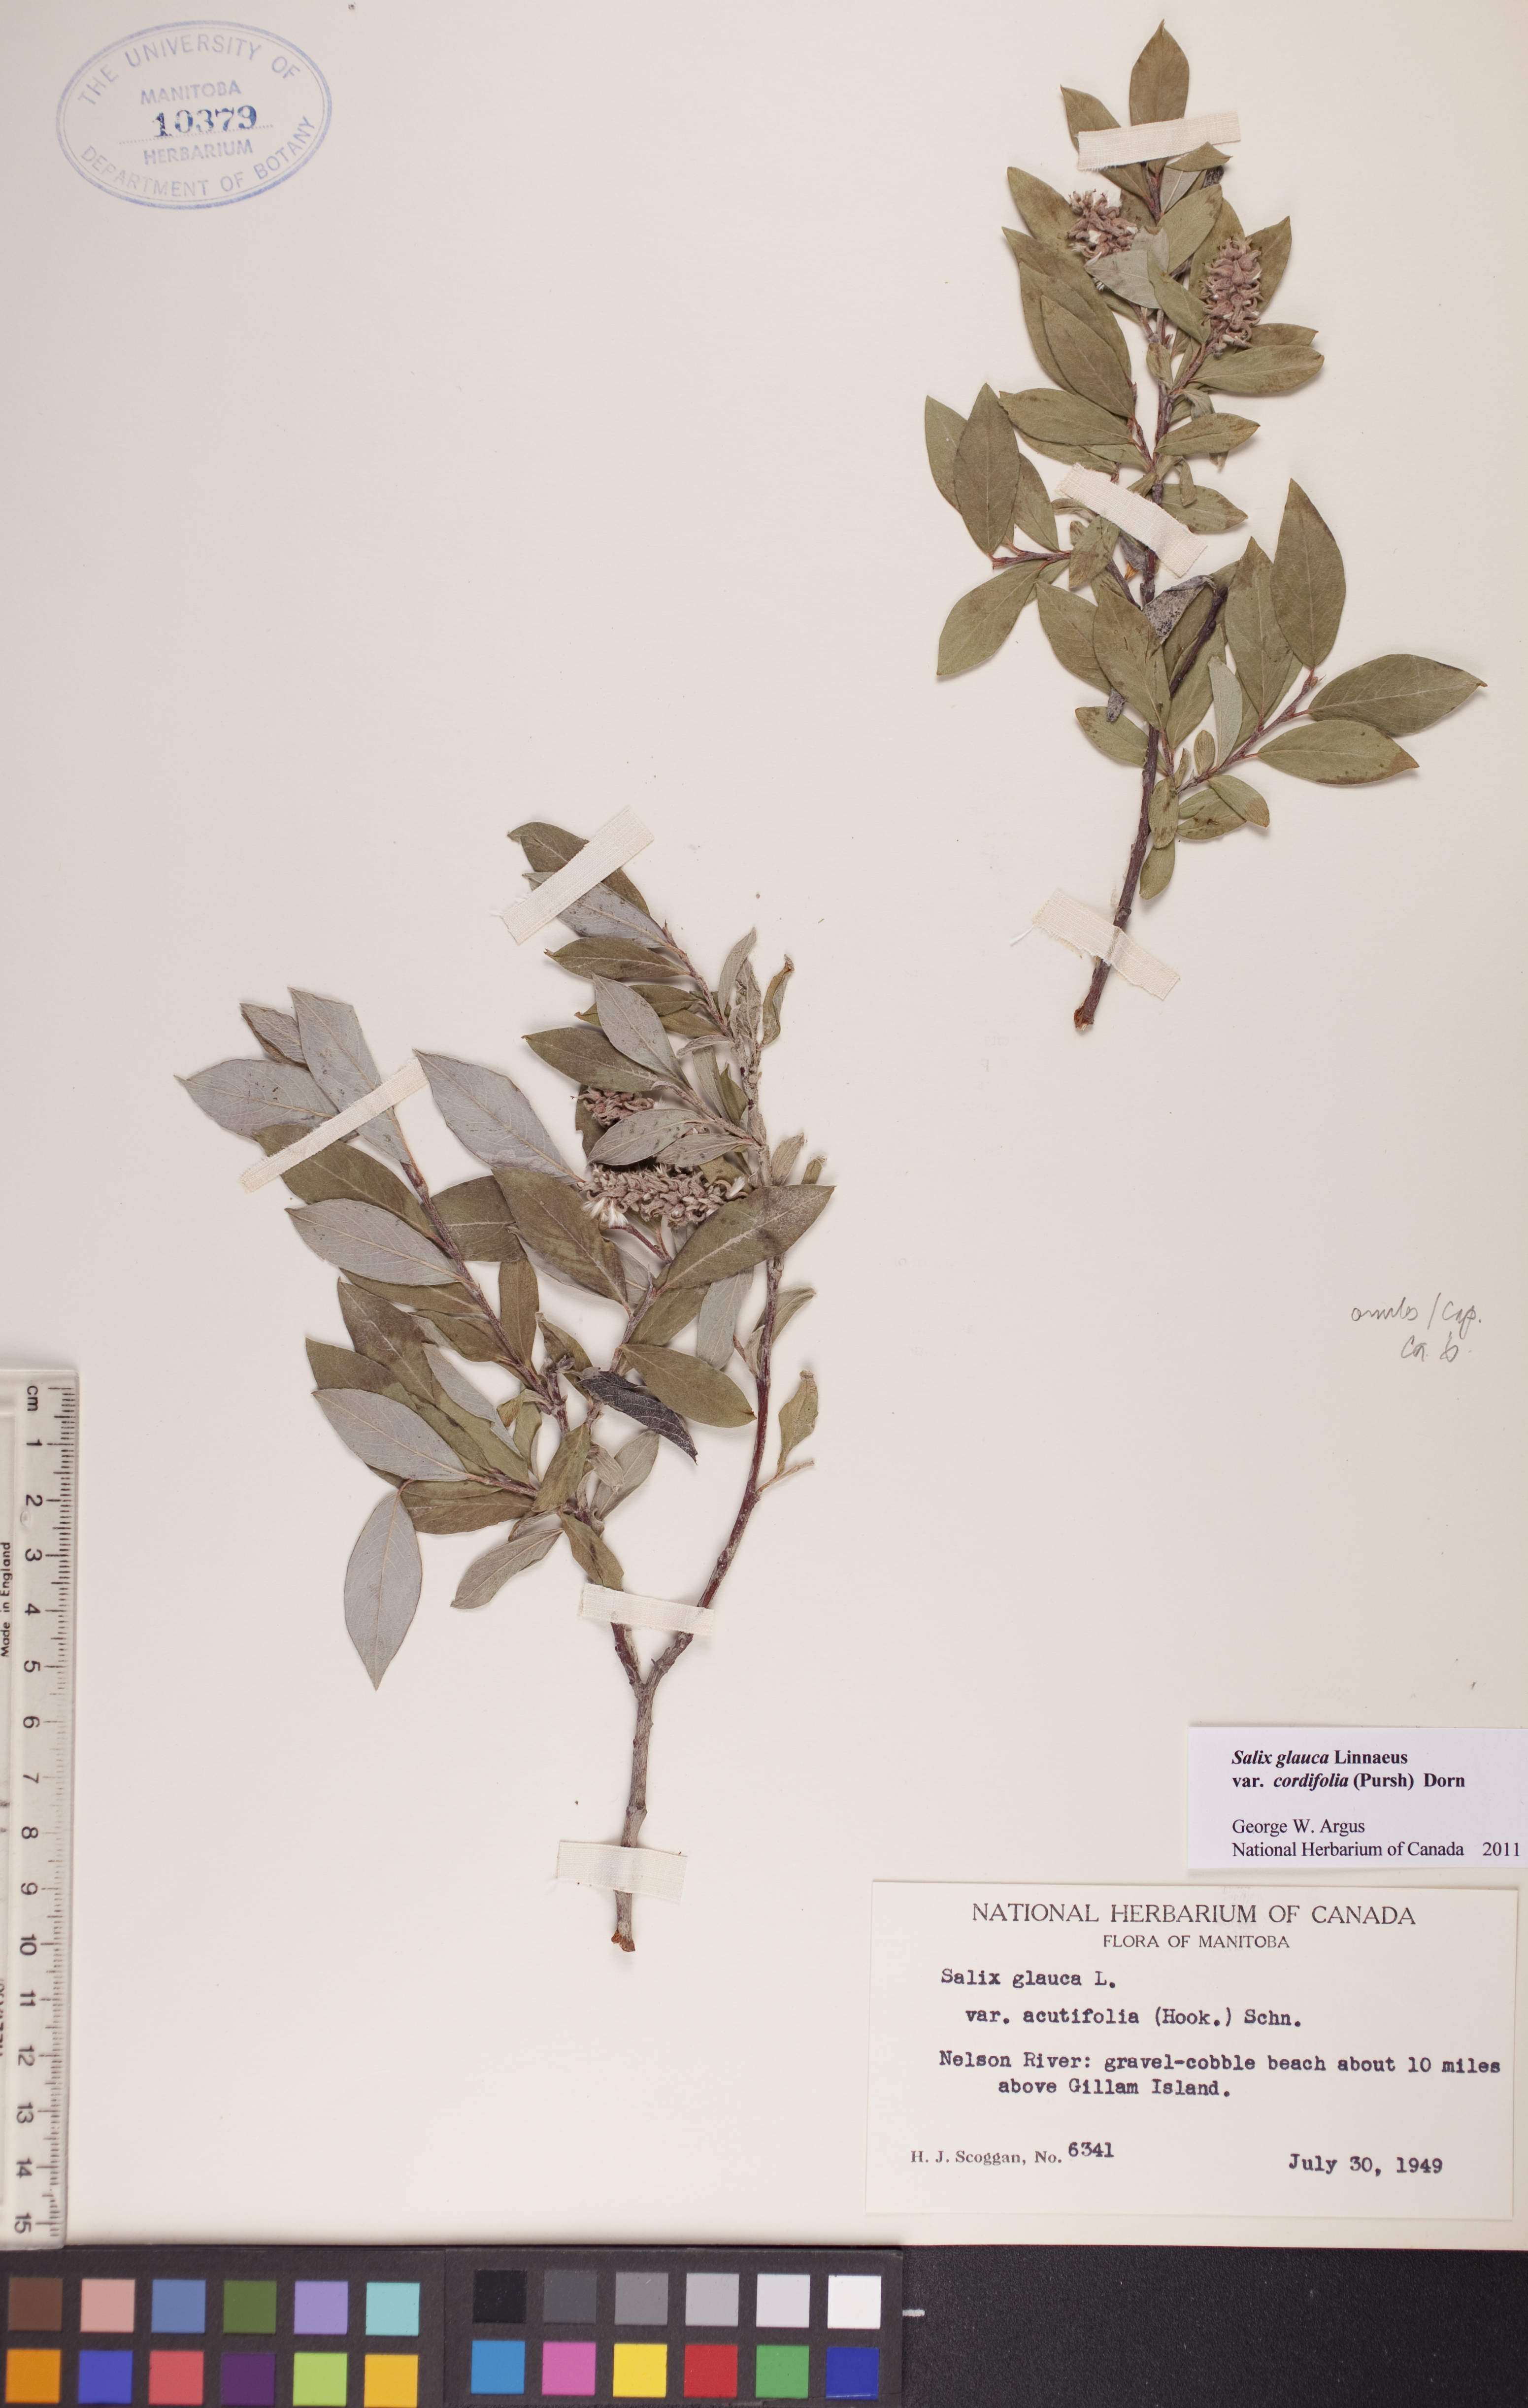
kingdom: Plantae
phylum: Tracheophyta
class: Magnoliopsida
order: Malpighiales
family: Salicaceae
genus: Salix
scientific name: Salix glauca
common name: Glaucous willow
